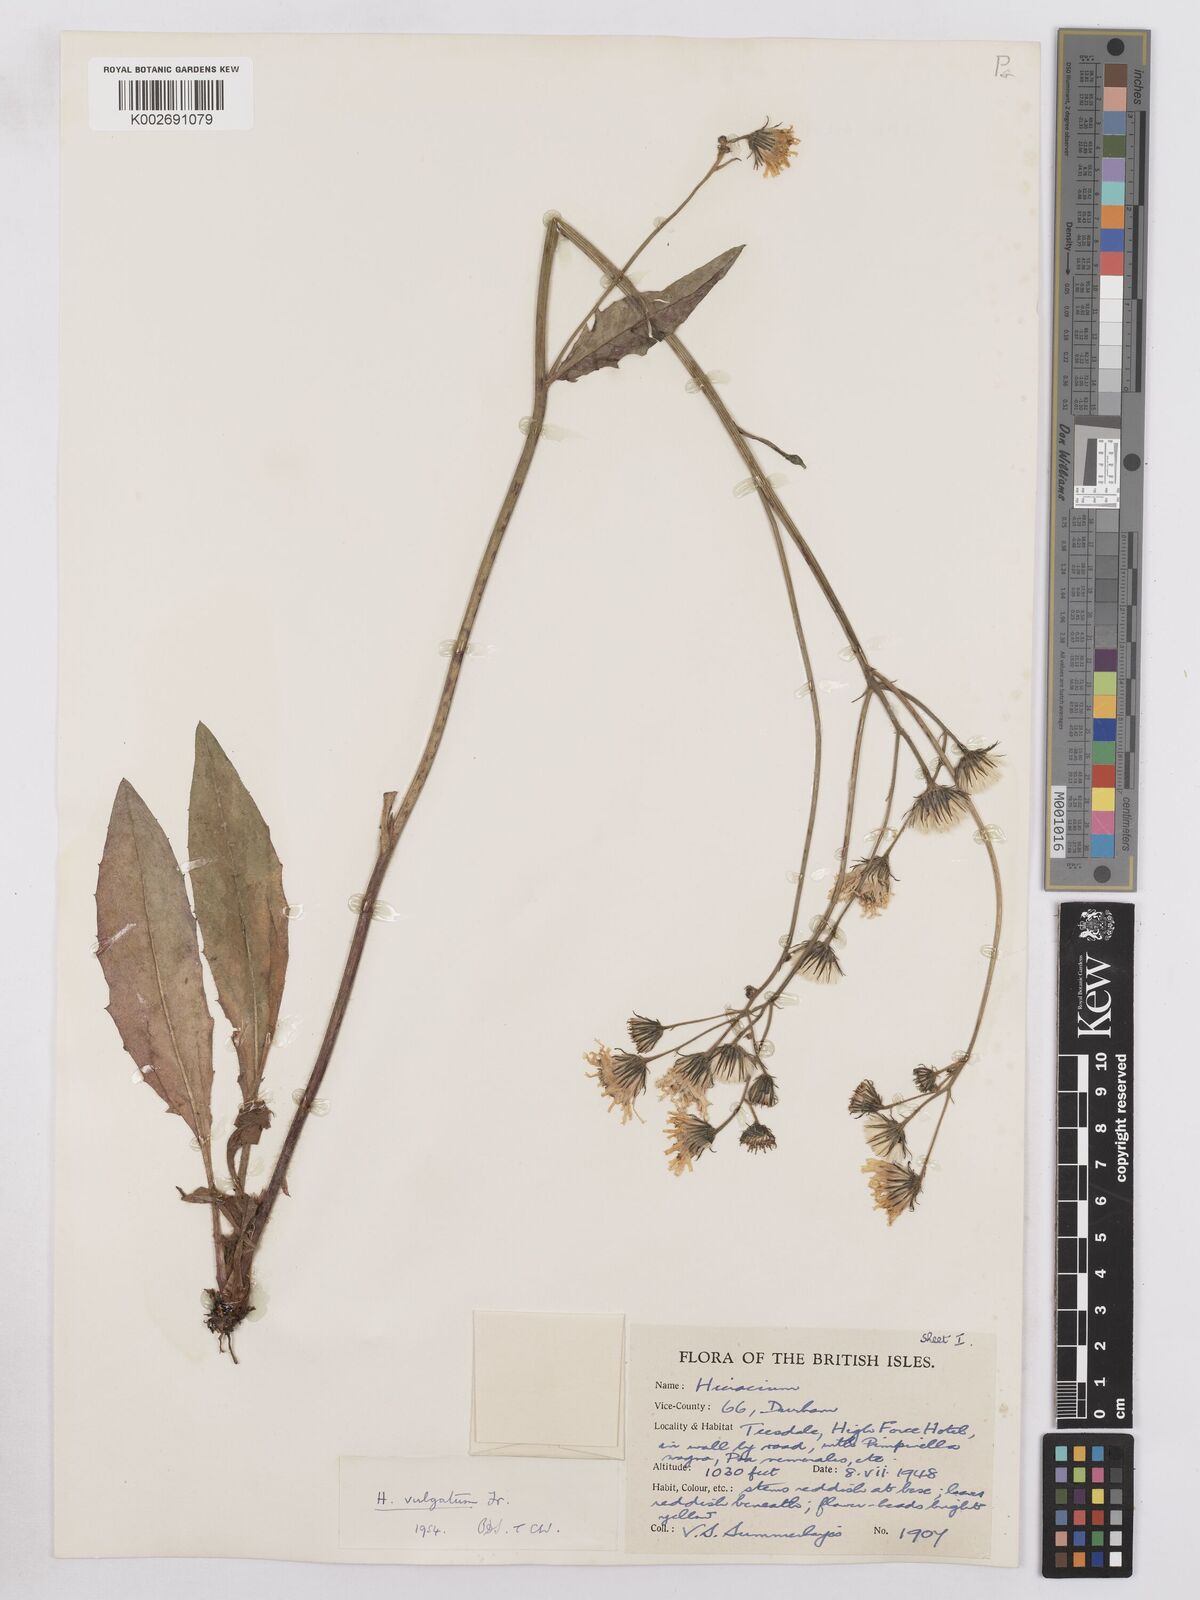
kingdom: Plantae
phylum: Tracheophyta
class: Magnoliopsida
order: Asterales
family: Asteraceae
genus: Hieracium
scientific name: Hieracium lachenalii
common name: Common hawkweed
